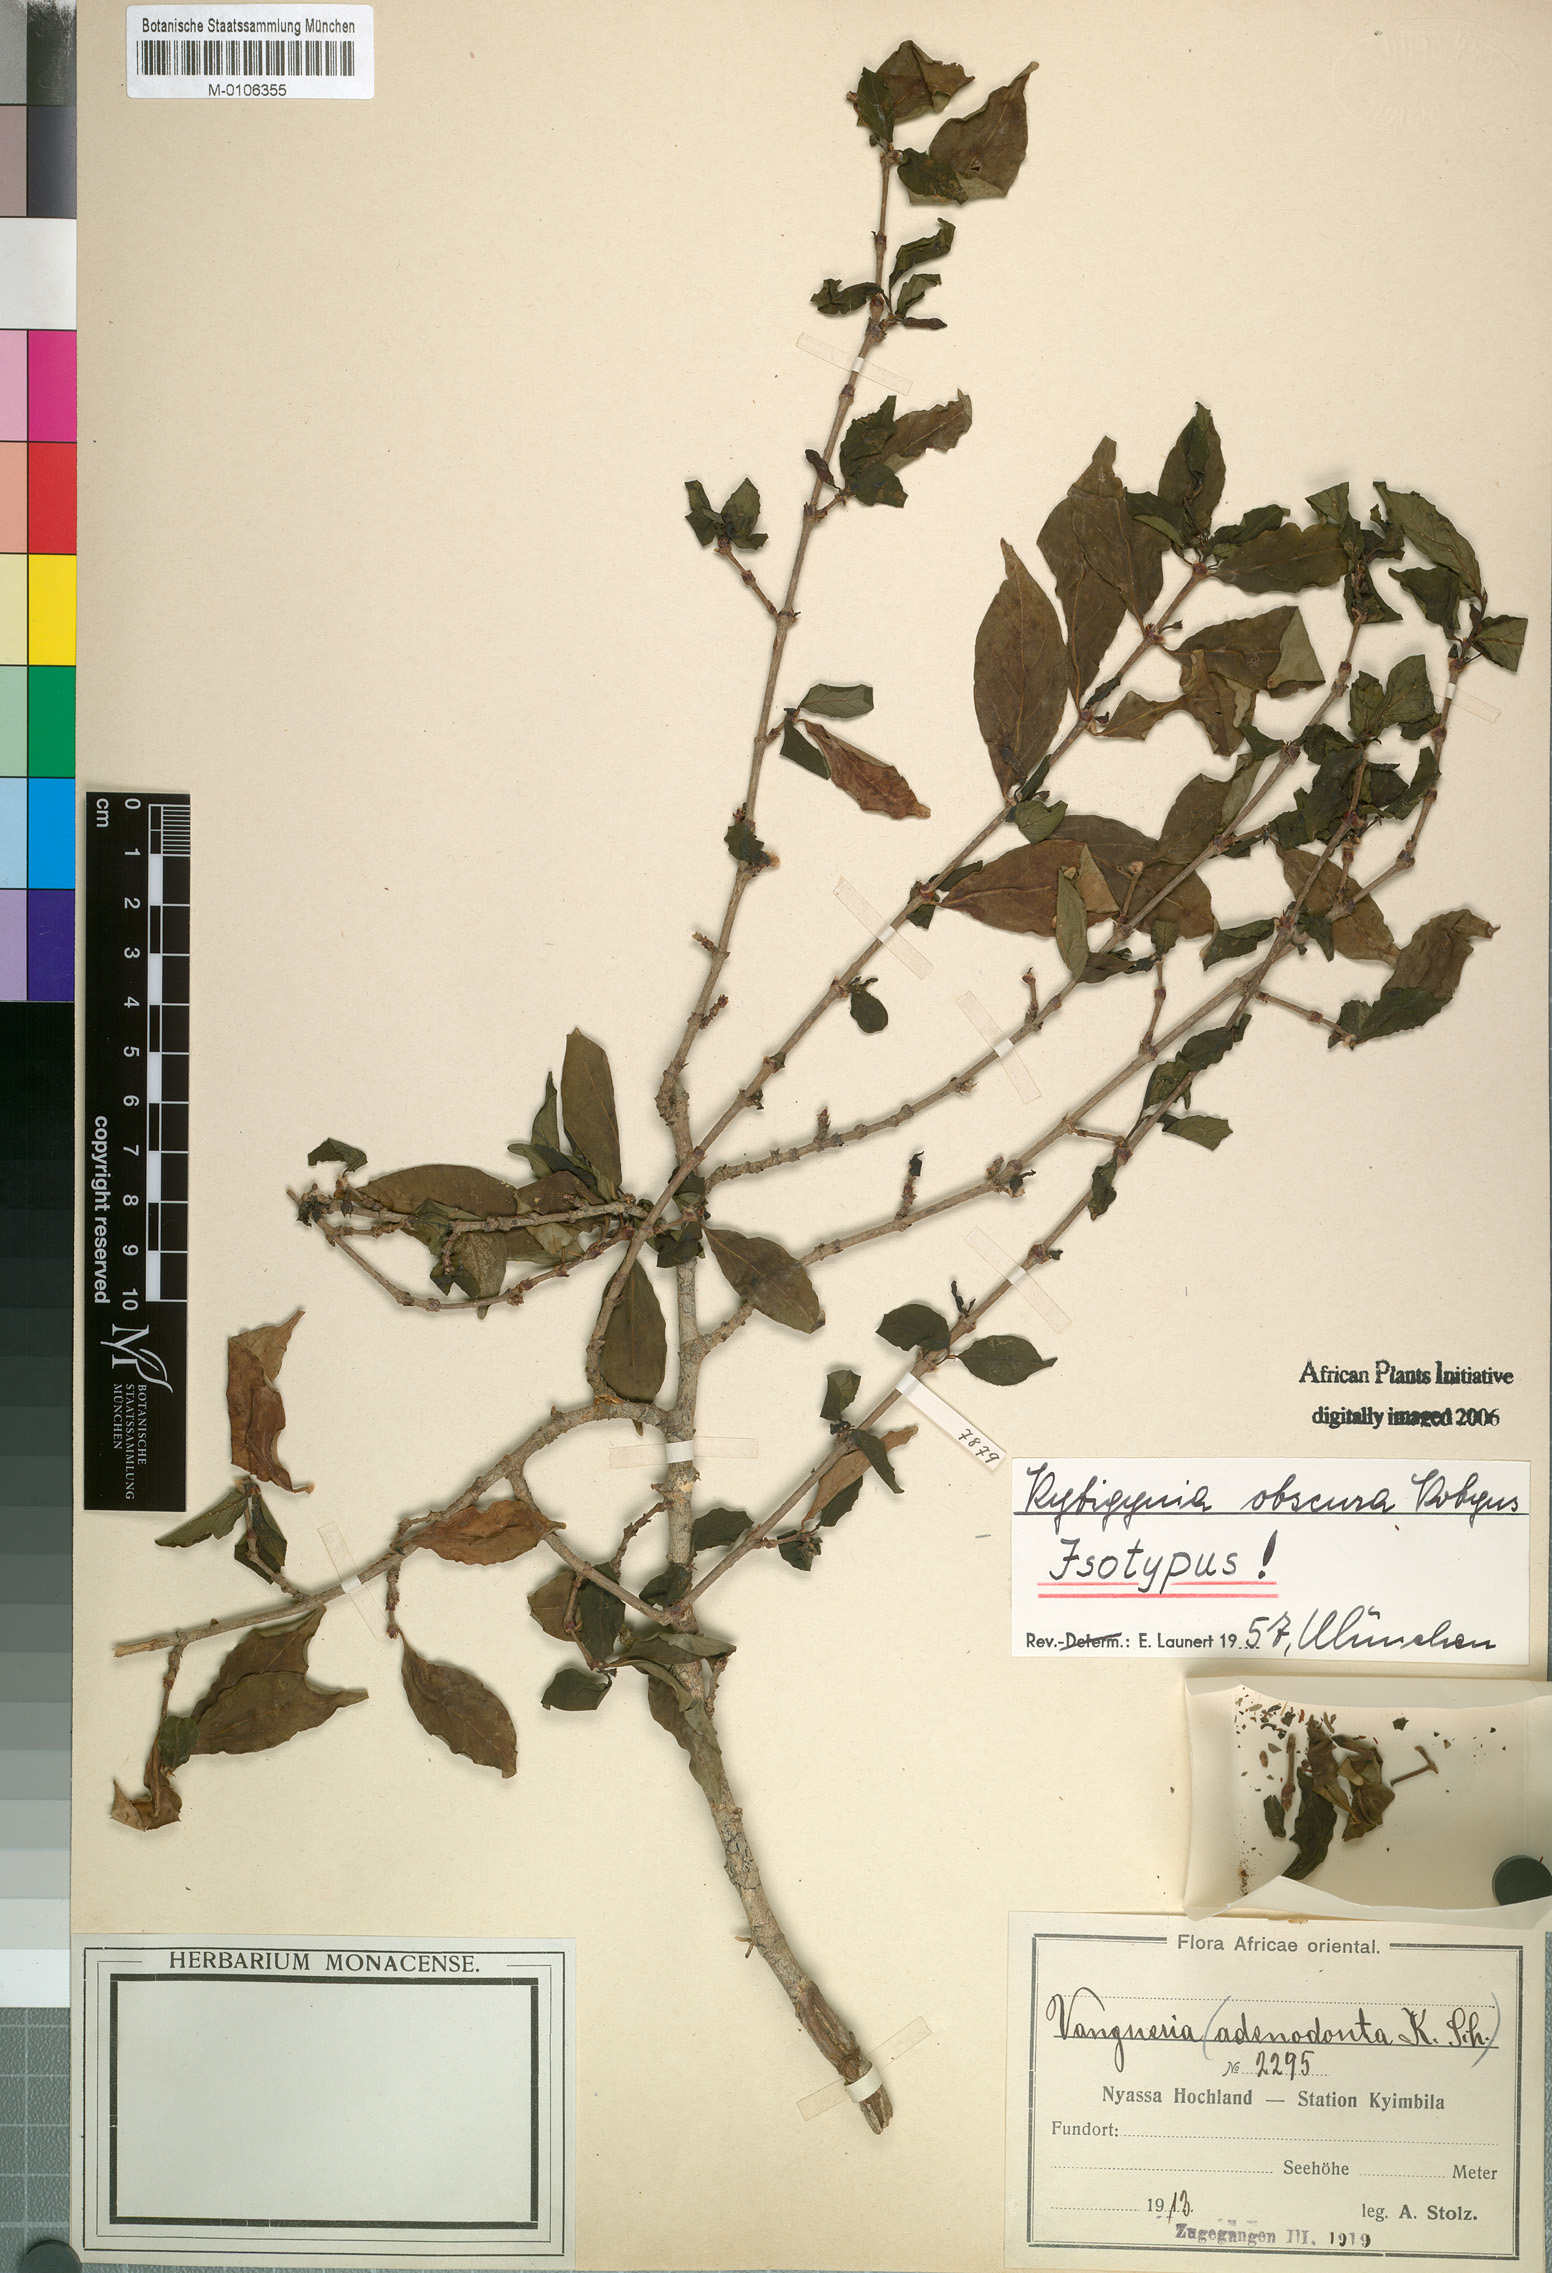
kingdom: Plantae
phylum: Tracheophyta
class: Magnoliopsida
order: Gentianales
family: Rubiaceae
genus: Rytigynia
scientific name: Rytigynia obscura
